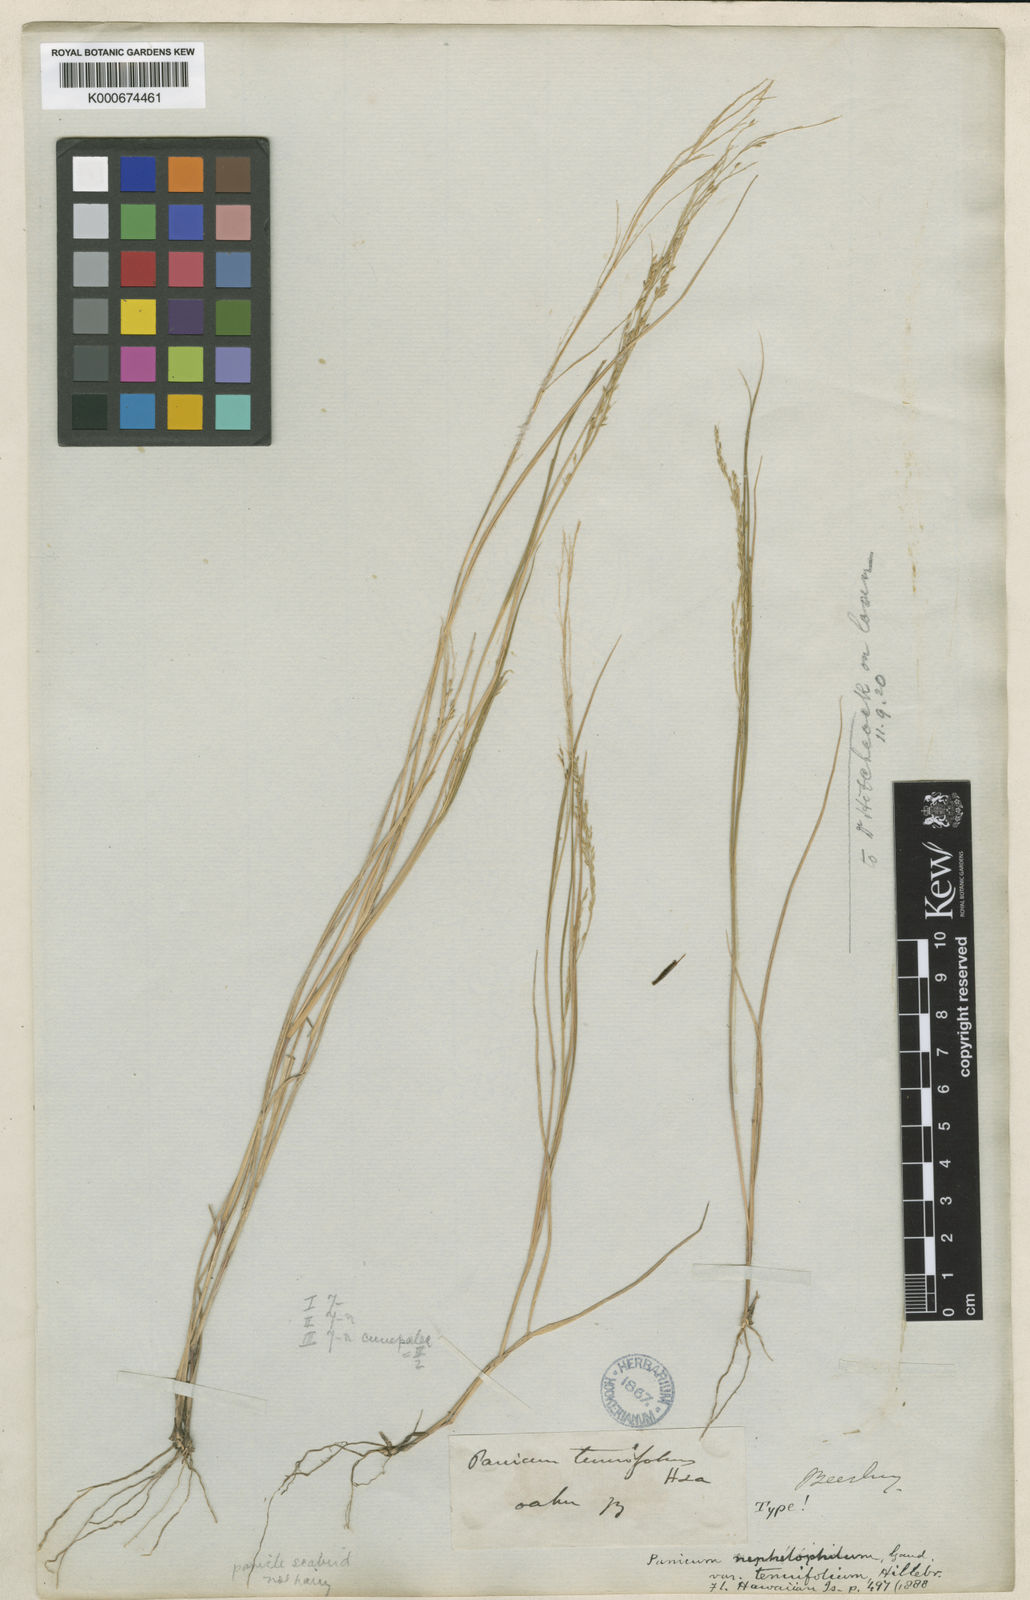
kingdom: Plantae
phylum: Tracheophyta
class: Liliopsida
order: Poales
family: Poaceae
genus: Panicum
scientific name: Panicum tenuifolium
